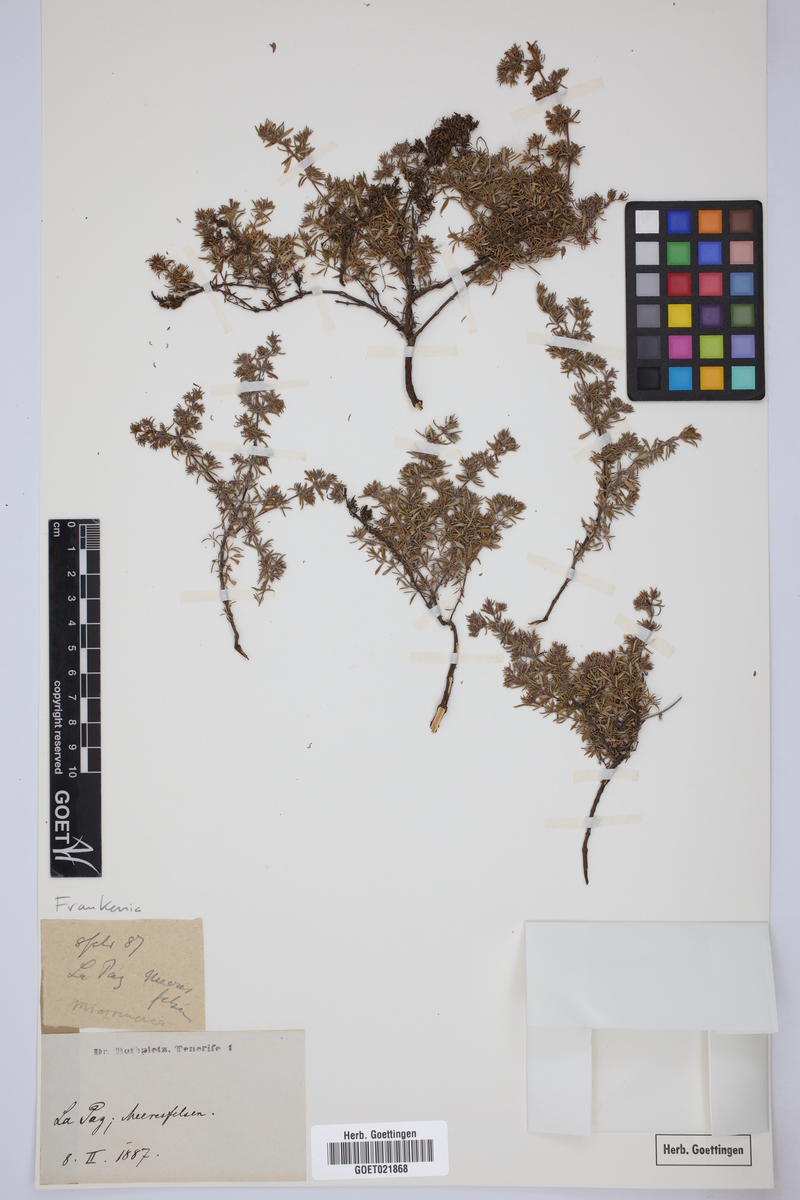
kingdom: Plantae
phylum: Tracheophyta
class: Magnoliopsida
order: Caryophyllales
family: Frankeniaceae
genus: Frankenia
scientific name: Frankenia
